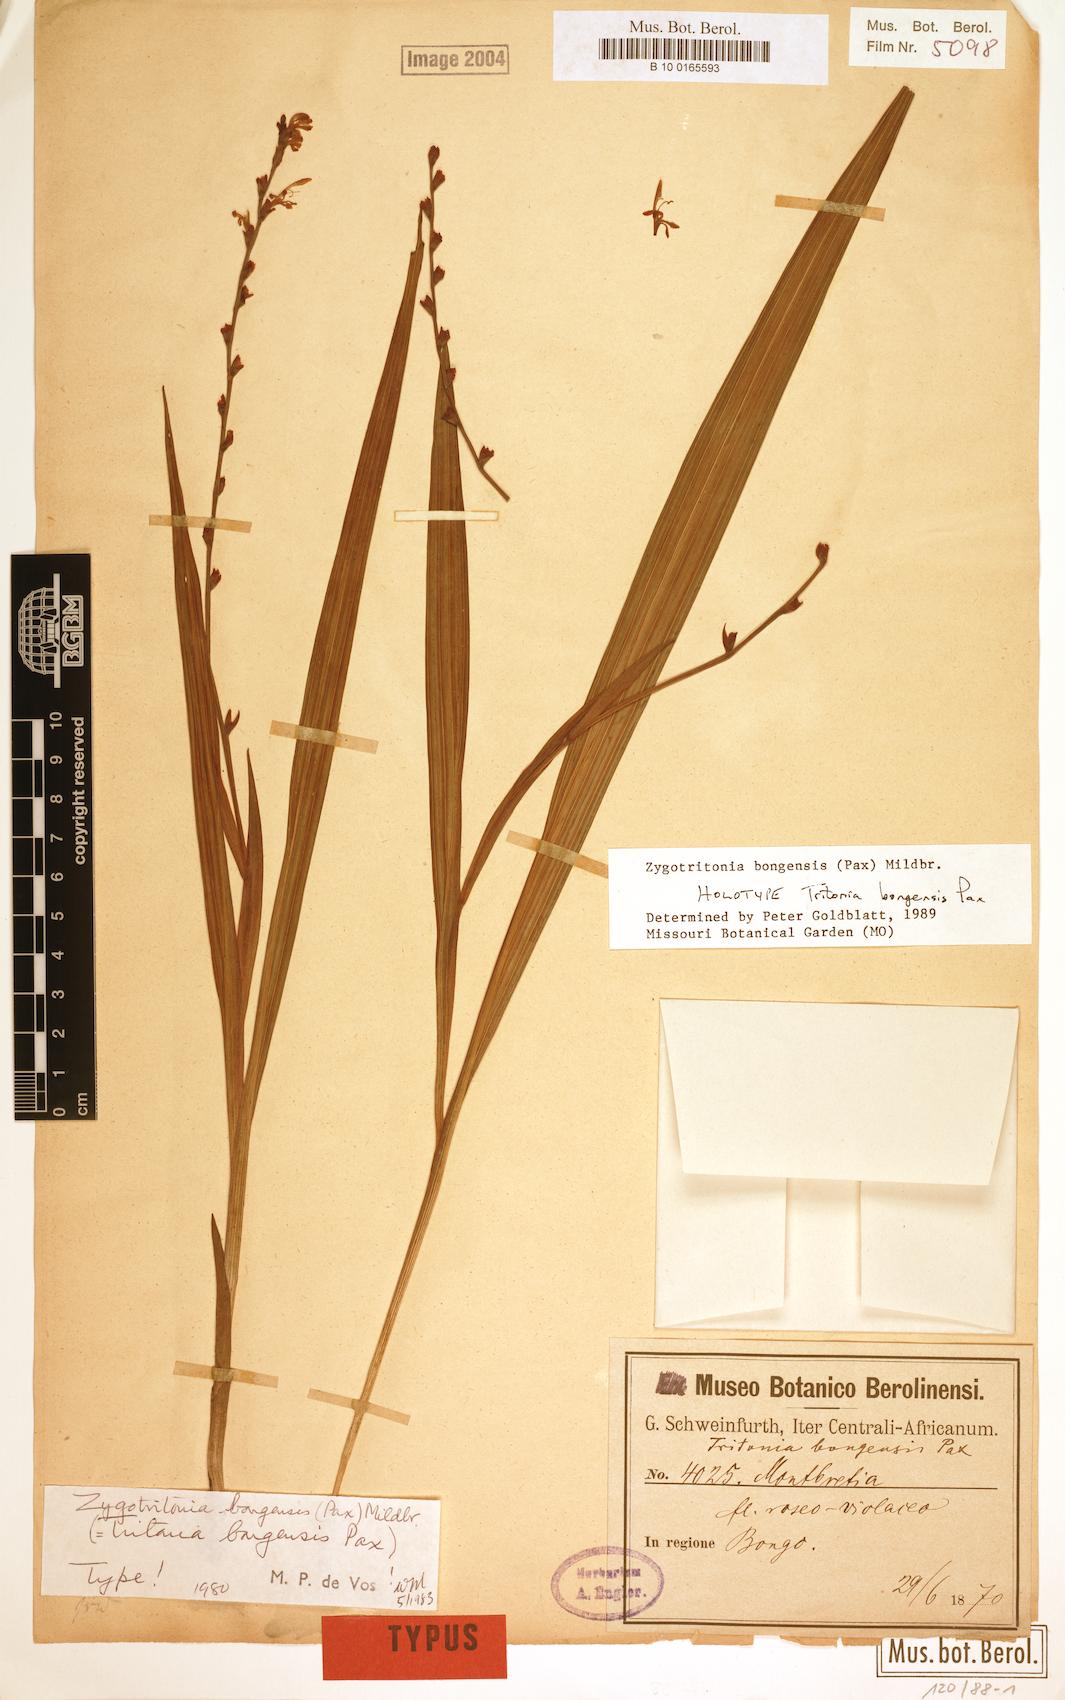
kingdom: Plantae
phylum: Tracheophyta
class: Liliopsida
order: Asparagales
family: Iridaceae
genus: Zygotritonia
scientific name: Zygotritonia bongensis
